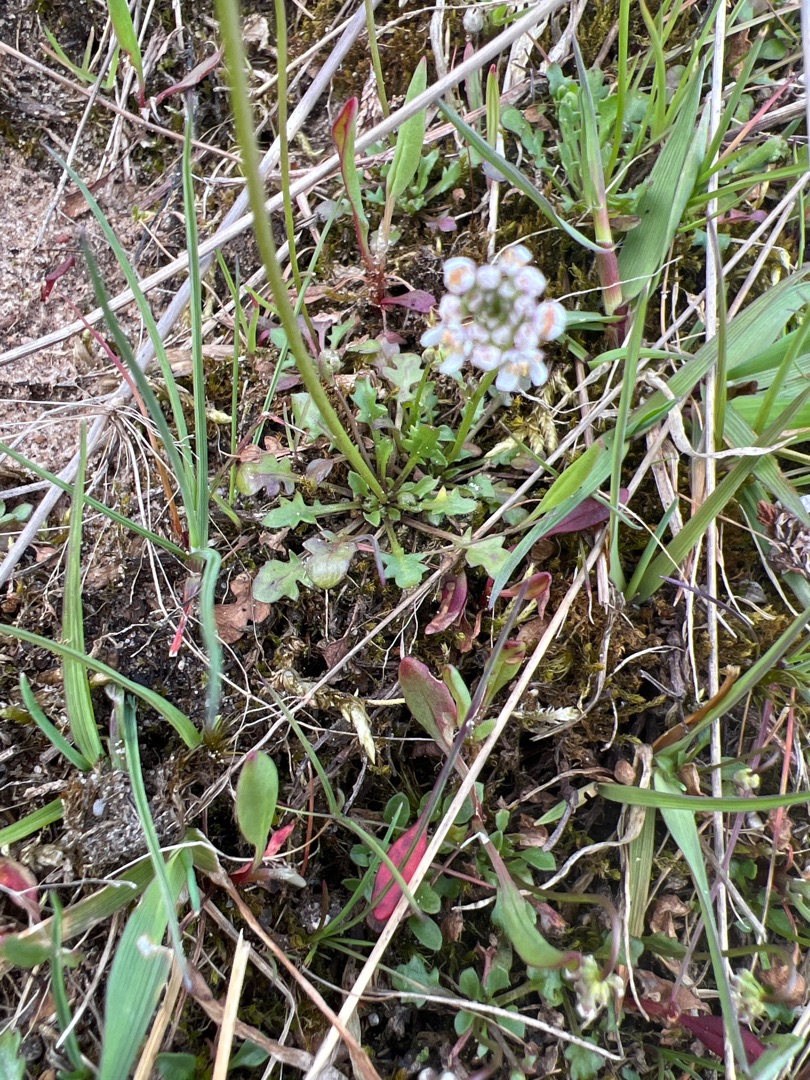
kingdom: Plantae
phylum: Tracheophyta
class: Magnoliopsida
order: Brassicales
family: Brassicaceae
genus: Teesdalia
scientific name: Teesdalia nudicaulis
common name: Flipkrave
